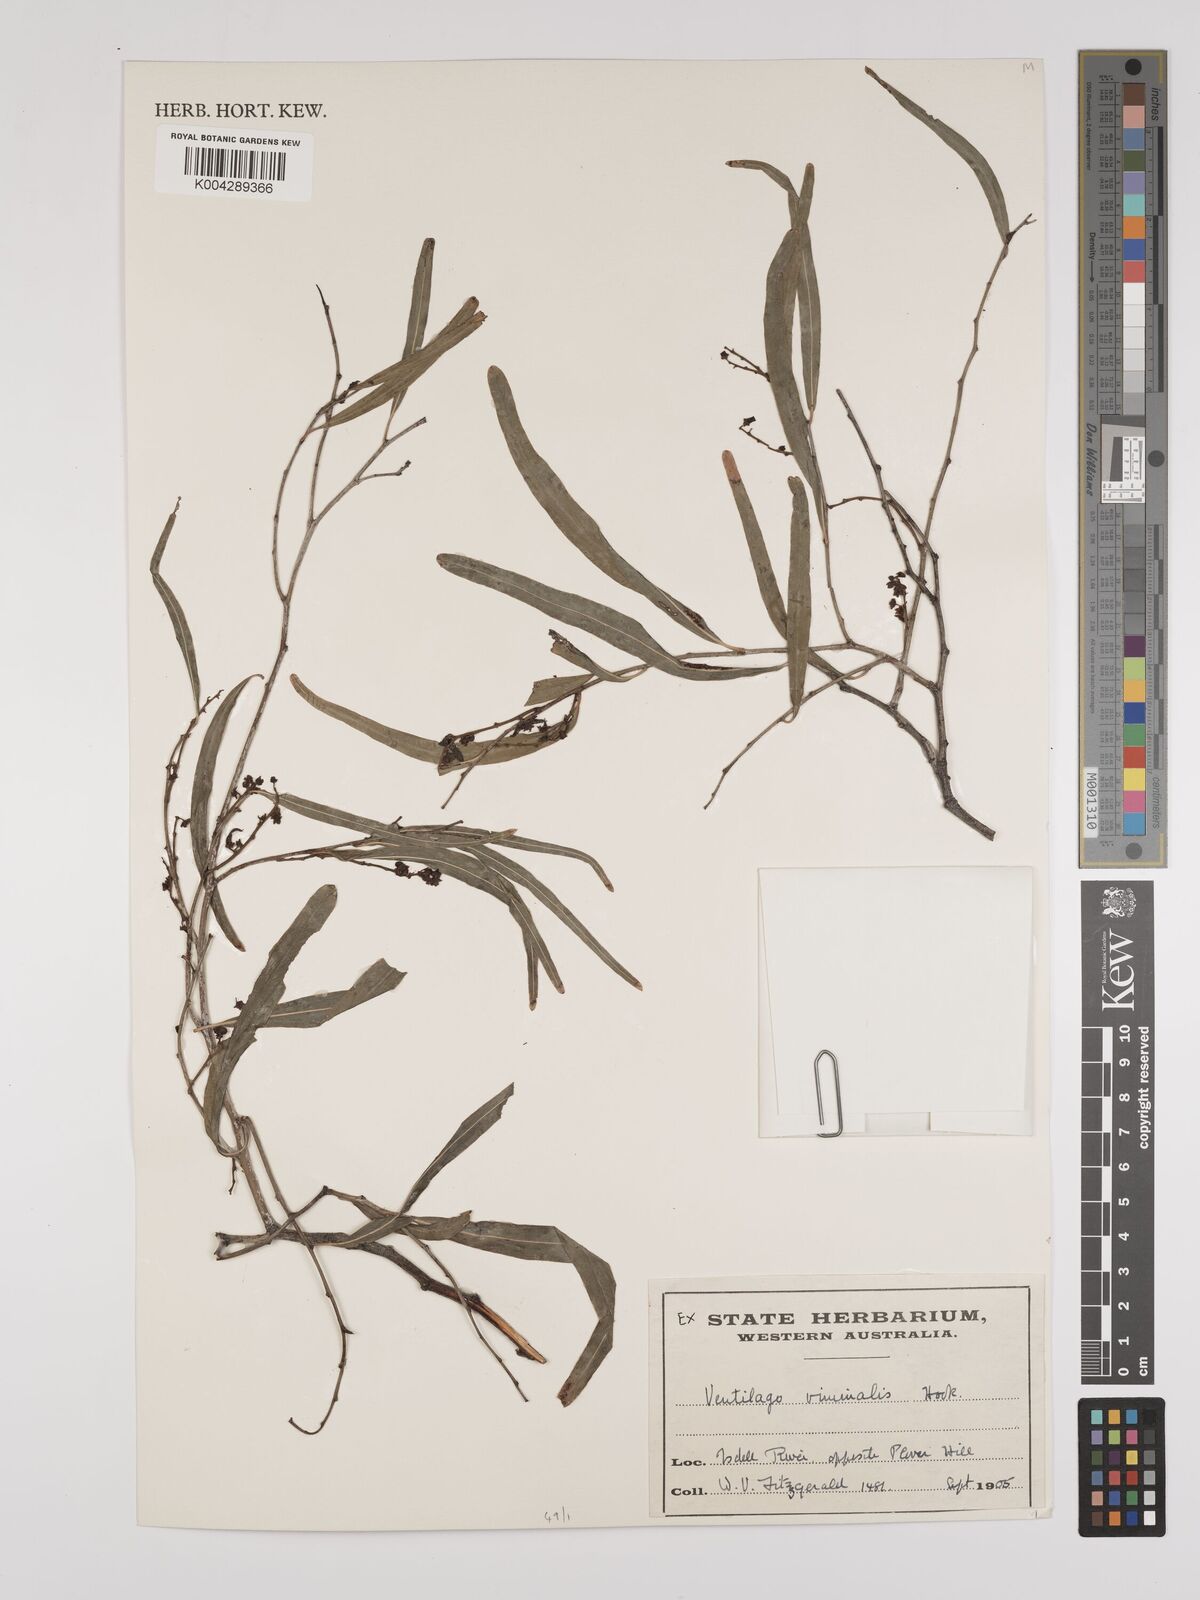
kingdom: Plantae
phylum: Tracheophyta
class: Magnoliopsida
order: Rosales
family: Rhamnaceae
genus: Ventilago
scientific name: Ventilago viminalis
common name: Medicine-bark
